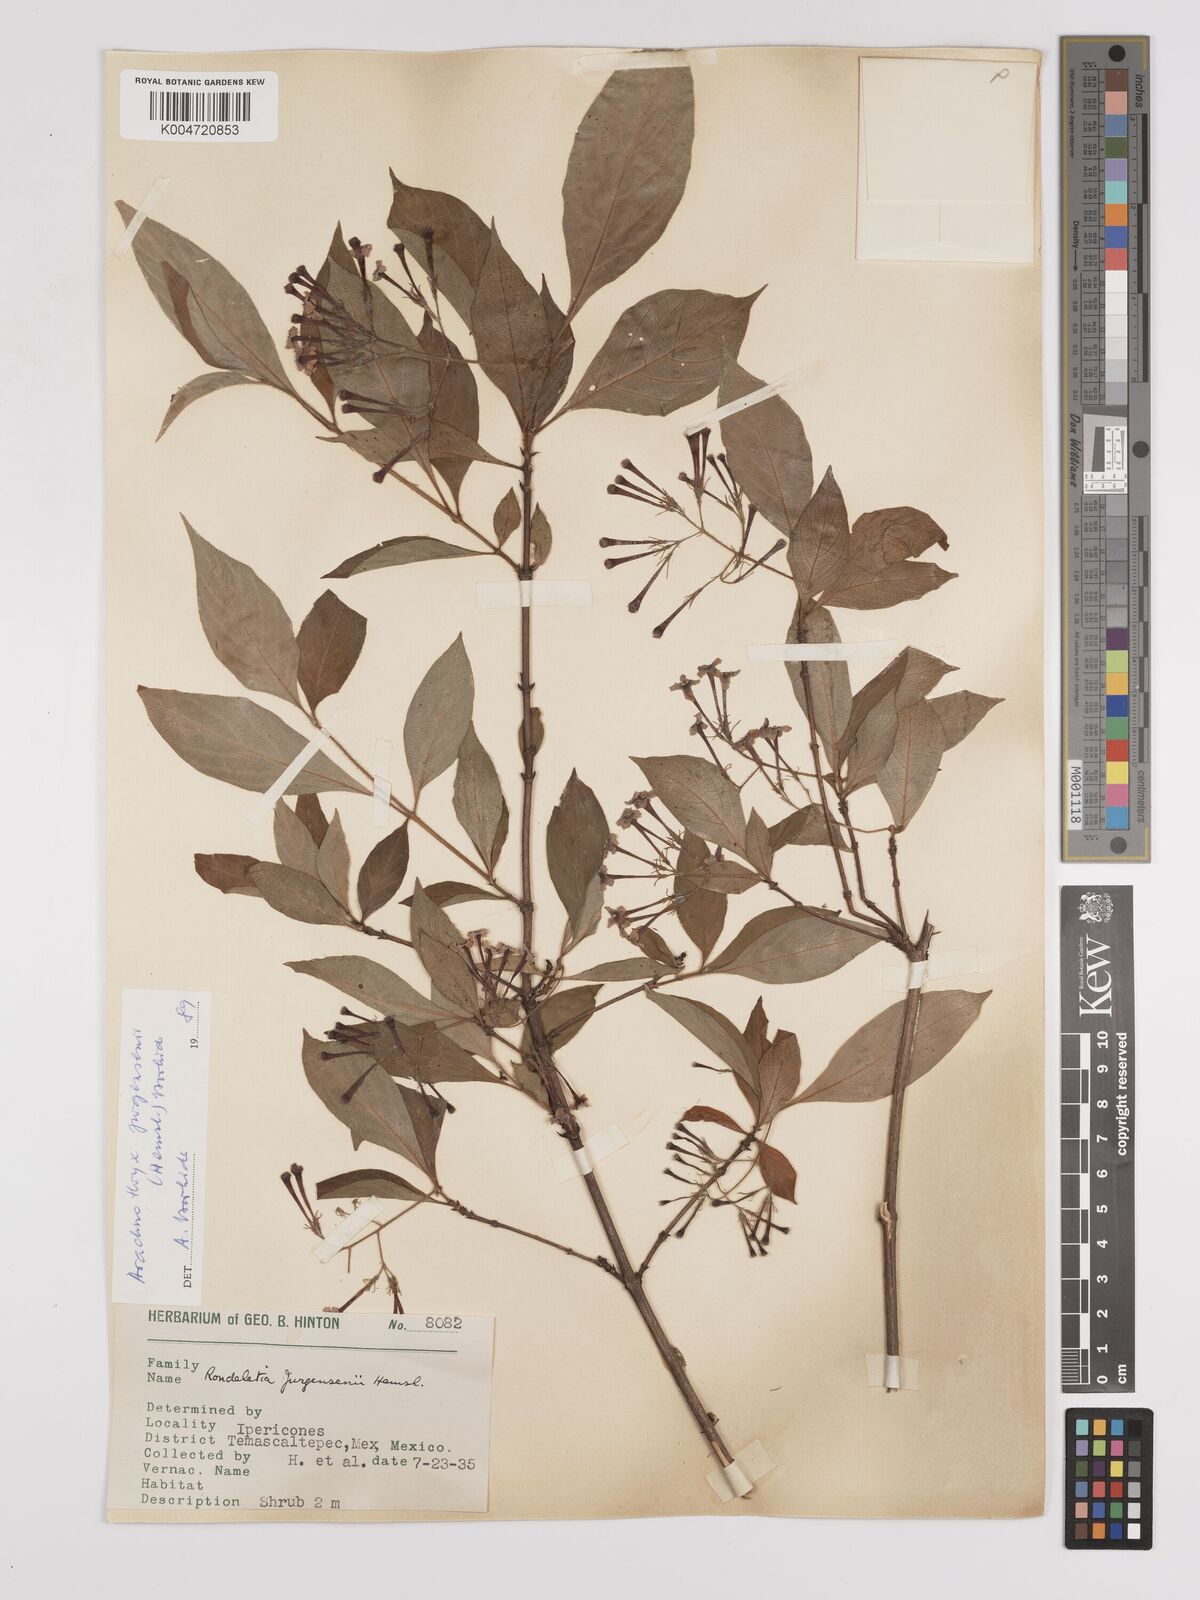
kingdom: Plantae
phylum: Tracheophyta
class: Magnoliopsida
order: Gentianales
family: Rubiaceae
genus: Arachnothryx
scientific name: Arachnothryx jurgensenii
